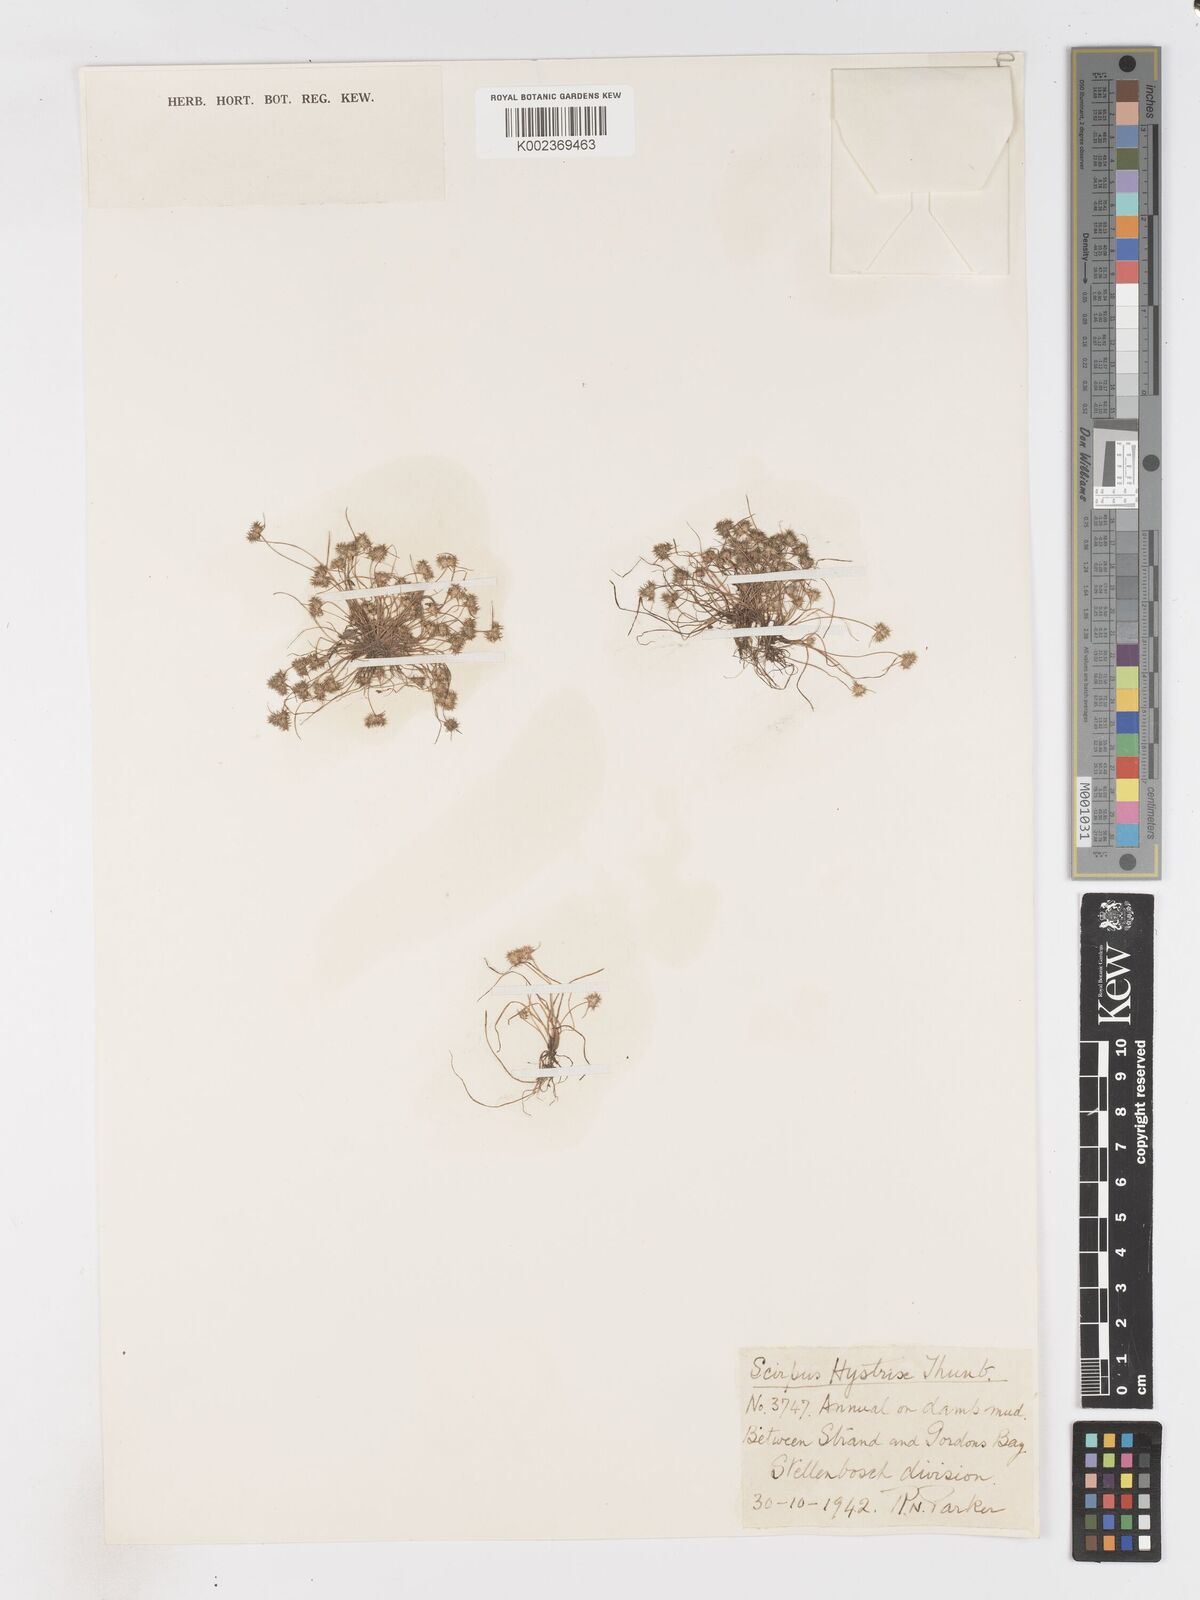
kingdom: Plantae
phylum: Tracheophyta
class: Liliopsida
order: Poales
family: Cyperaceae
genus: Isolepis
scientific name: Isolepis hystrix
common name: Bottlebrush bulrush
